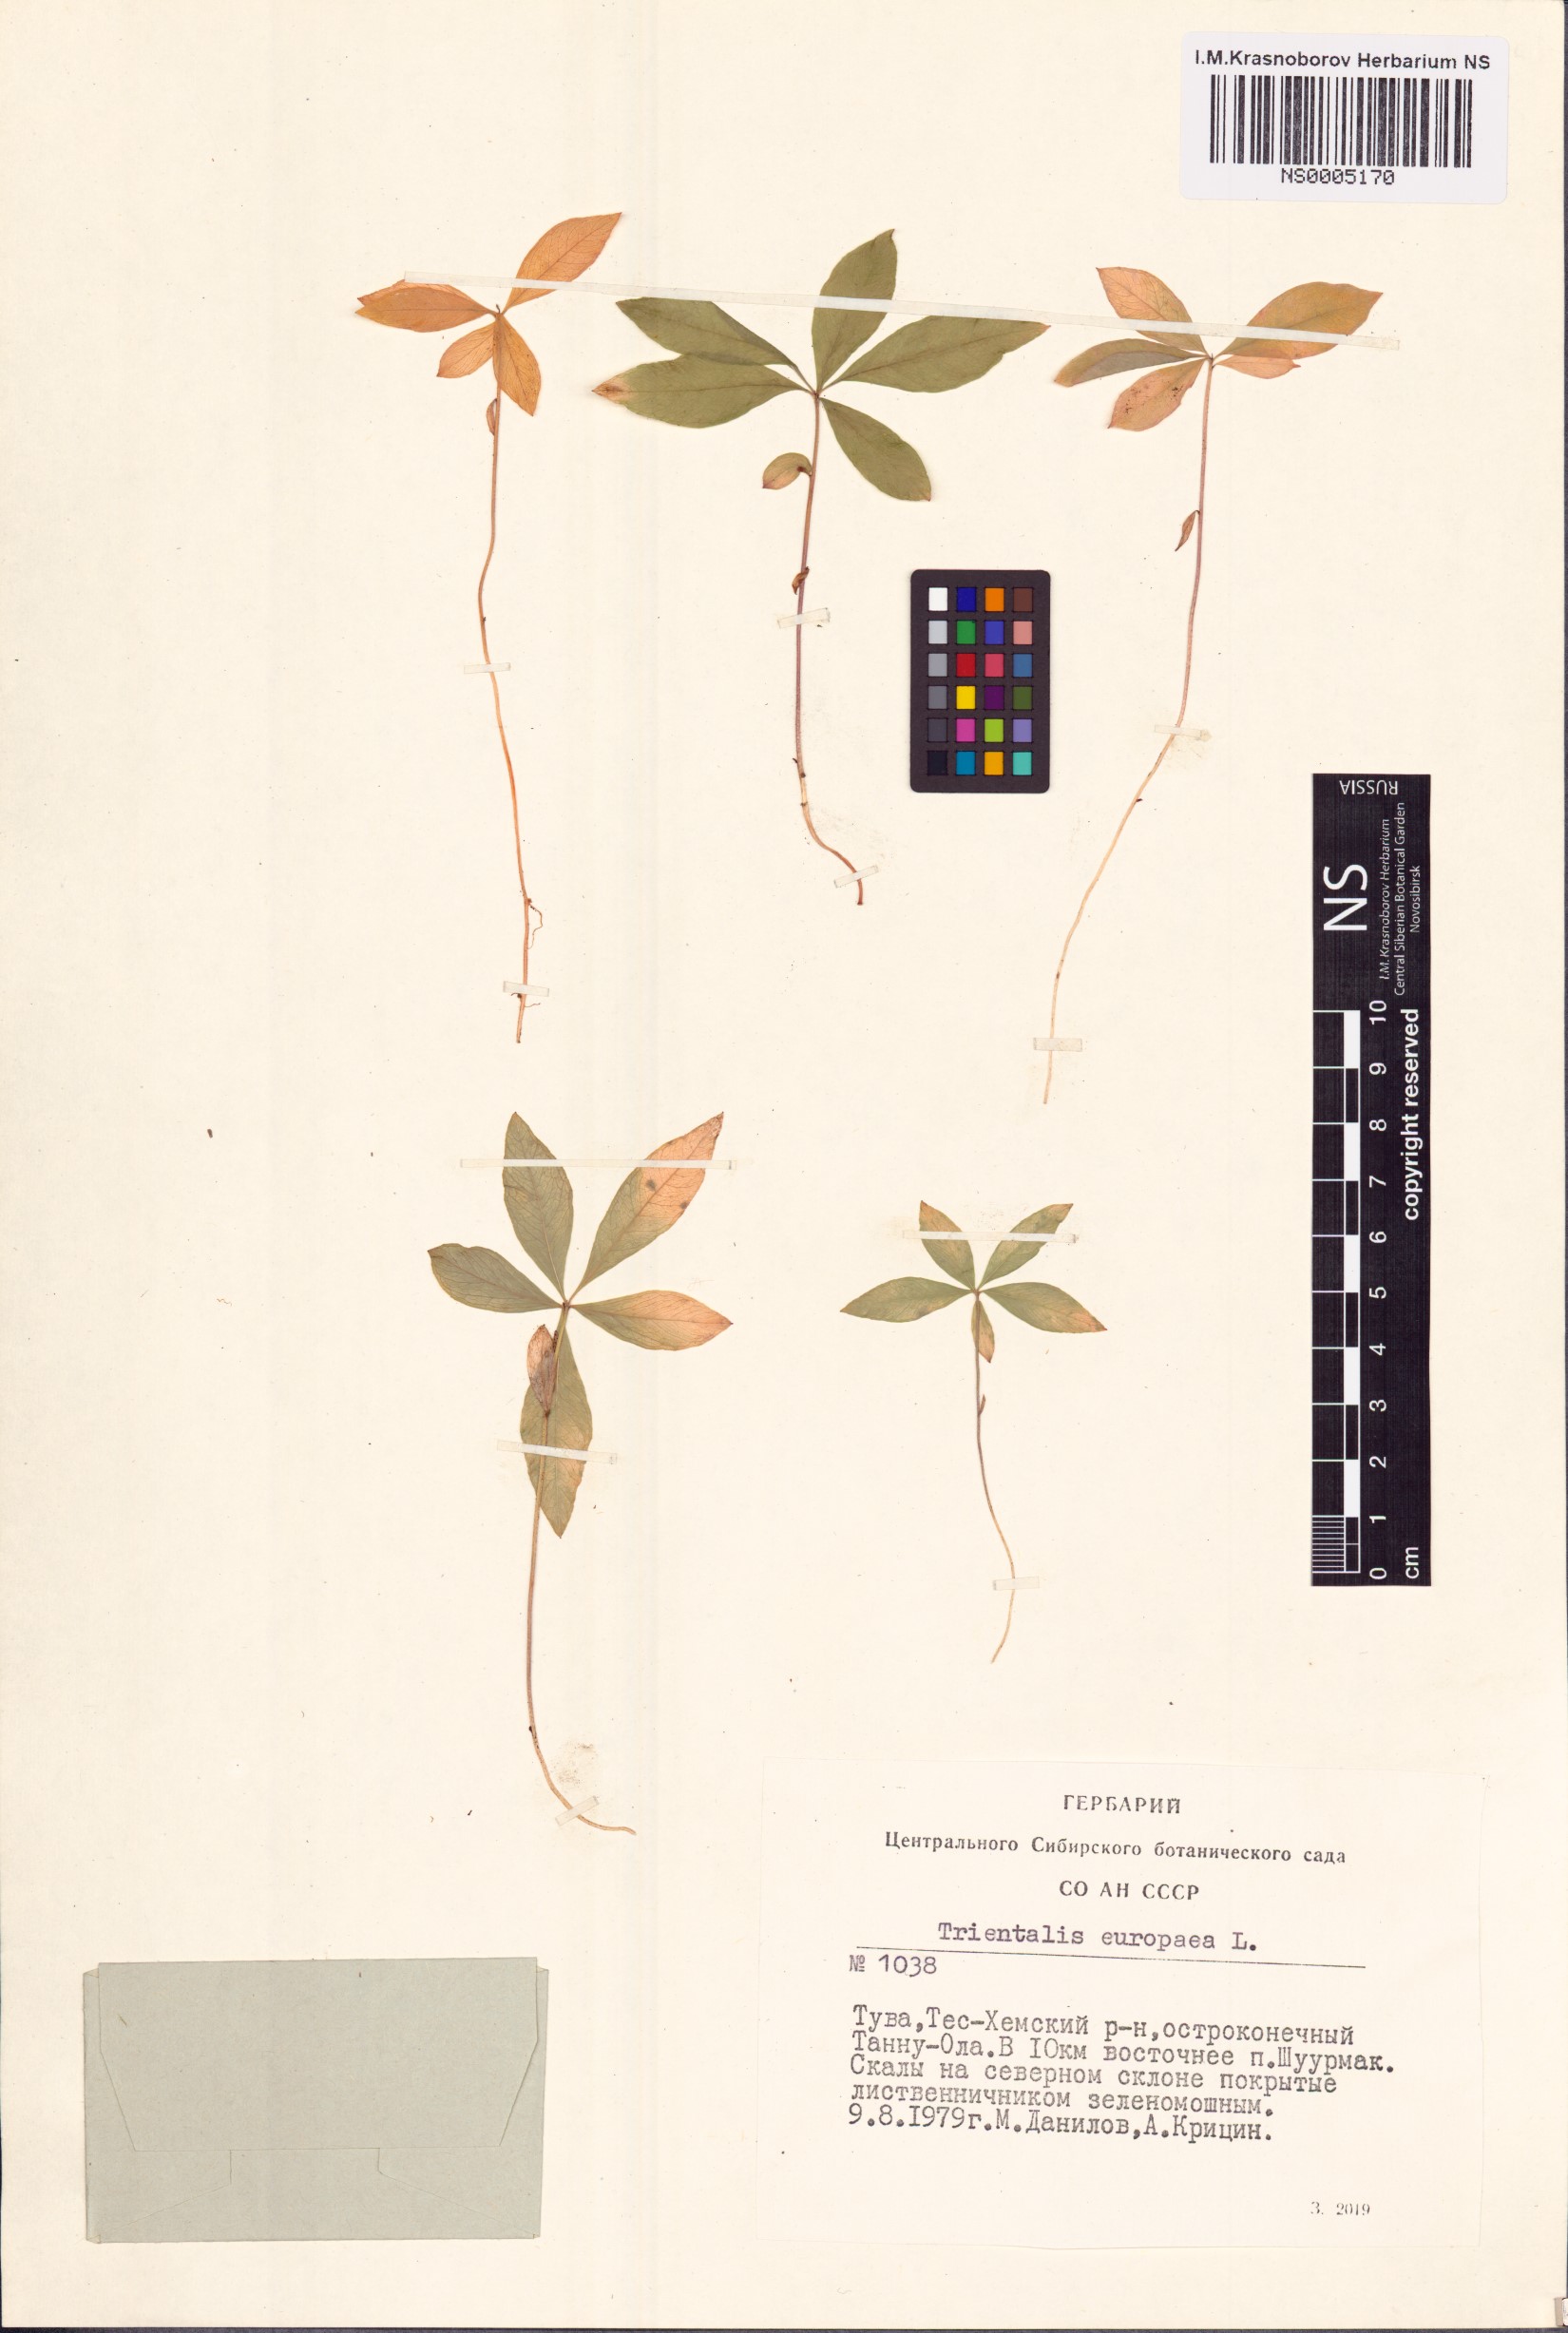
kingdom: Plantae
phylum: Tracheophyta
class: Magnoliopsida
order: Ericales
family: Primulaceae
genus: Lysimachia
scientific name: Lysimachia europaea
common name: Arctic starflower
